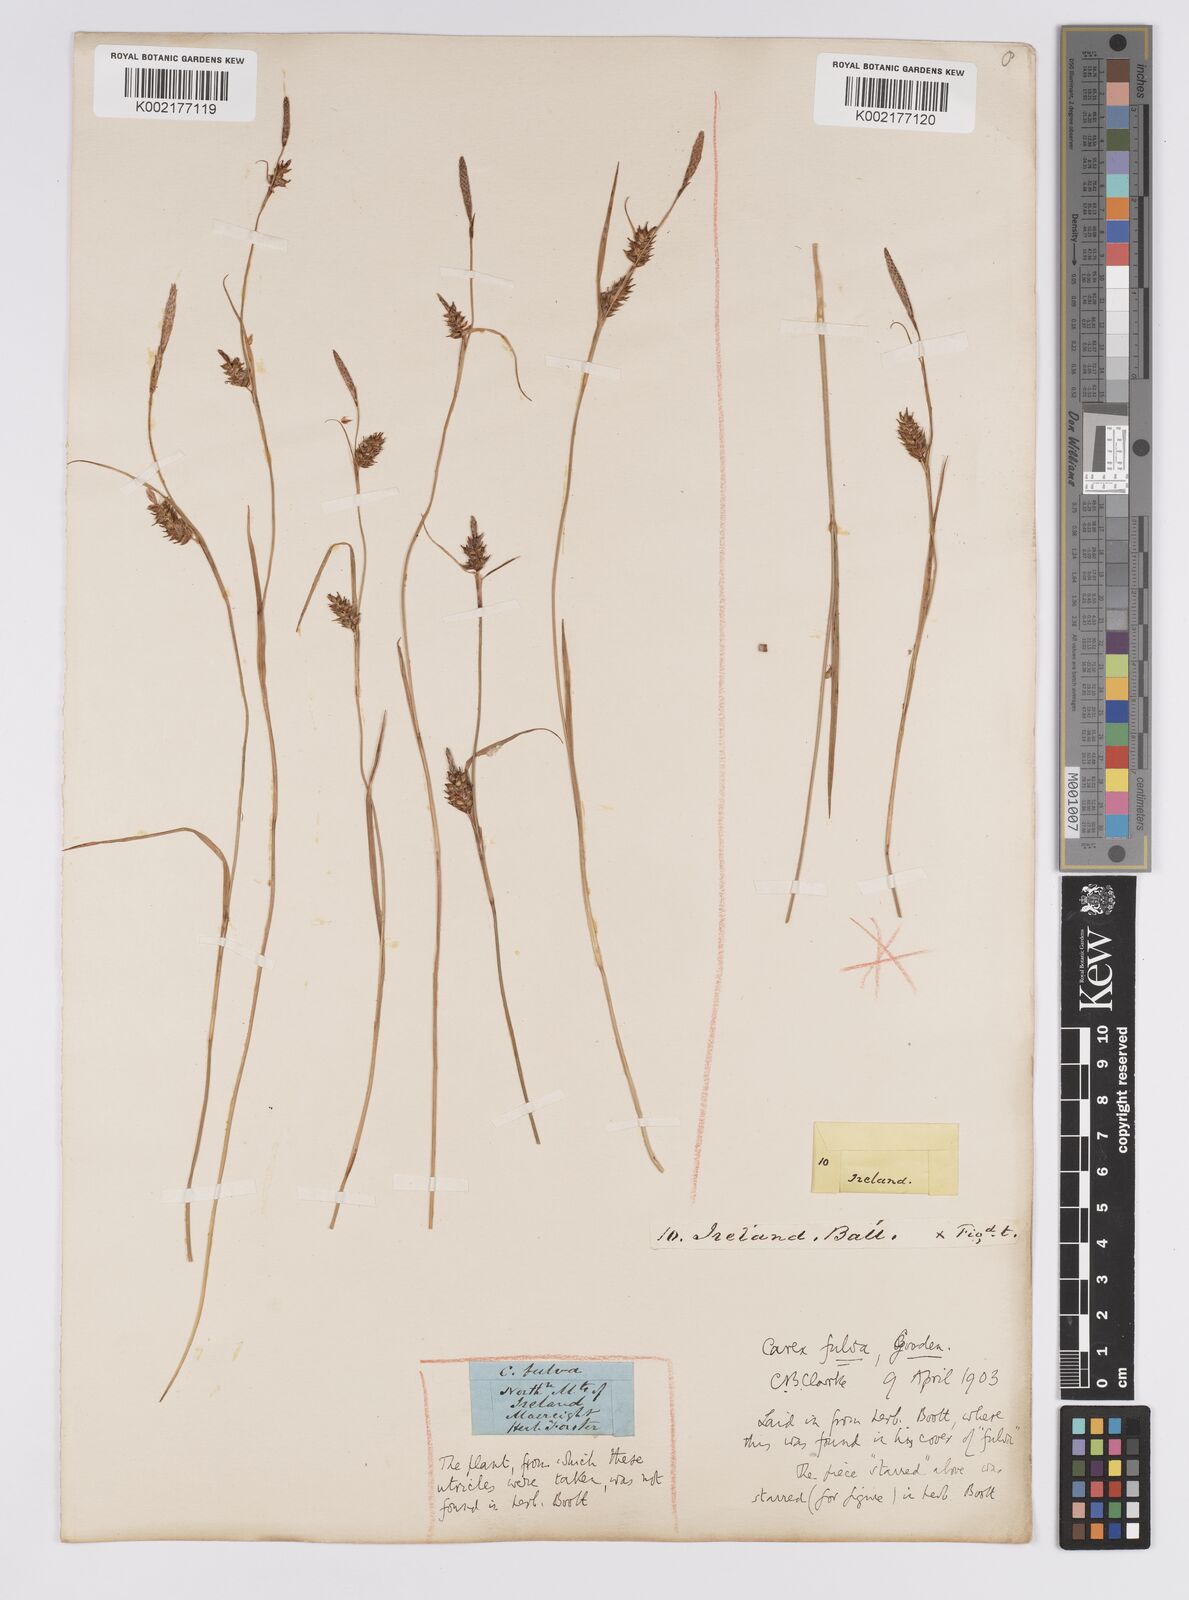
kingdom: Plantae
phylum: Tracheophyta
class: Liliopsida
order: Poales
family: Cyperaceae
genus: Carex
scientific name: Carex hostiana
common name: Tawny sedge
